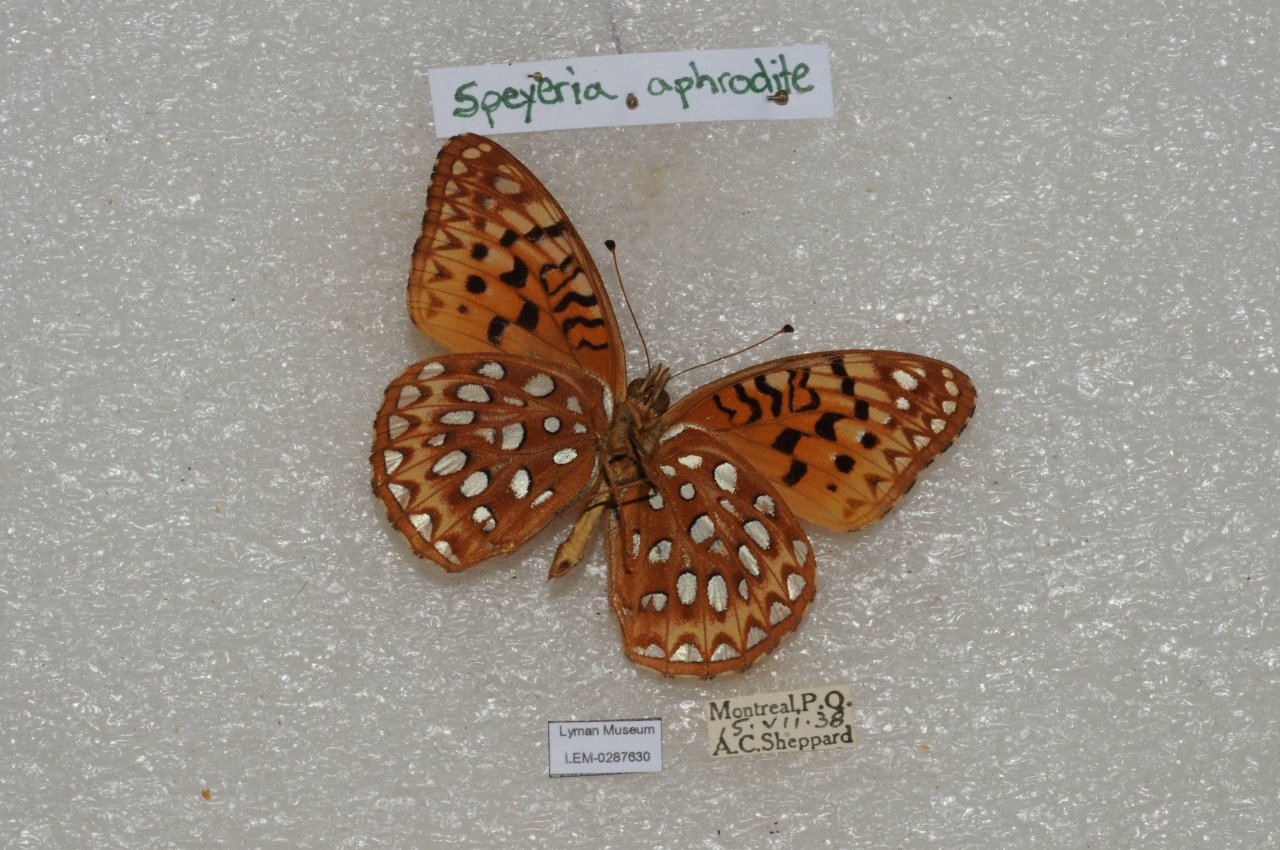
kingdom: Animalia
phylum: Arthropoda
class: Insecta
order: Lepidoptera
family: Nymphalidae
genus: Speyeria
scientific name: Speyeria aphrodite
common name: Aphrodite Fritillary
